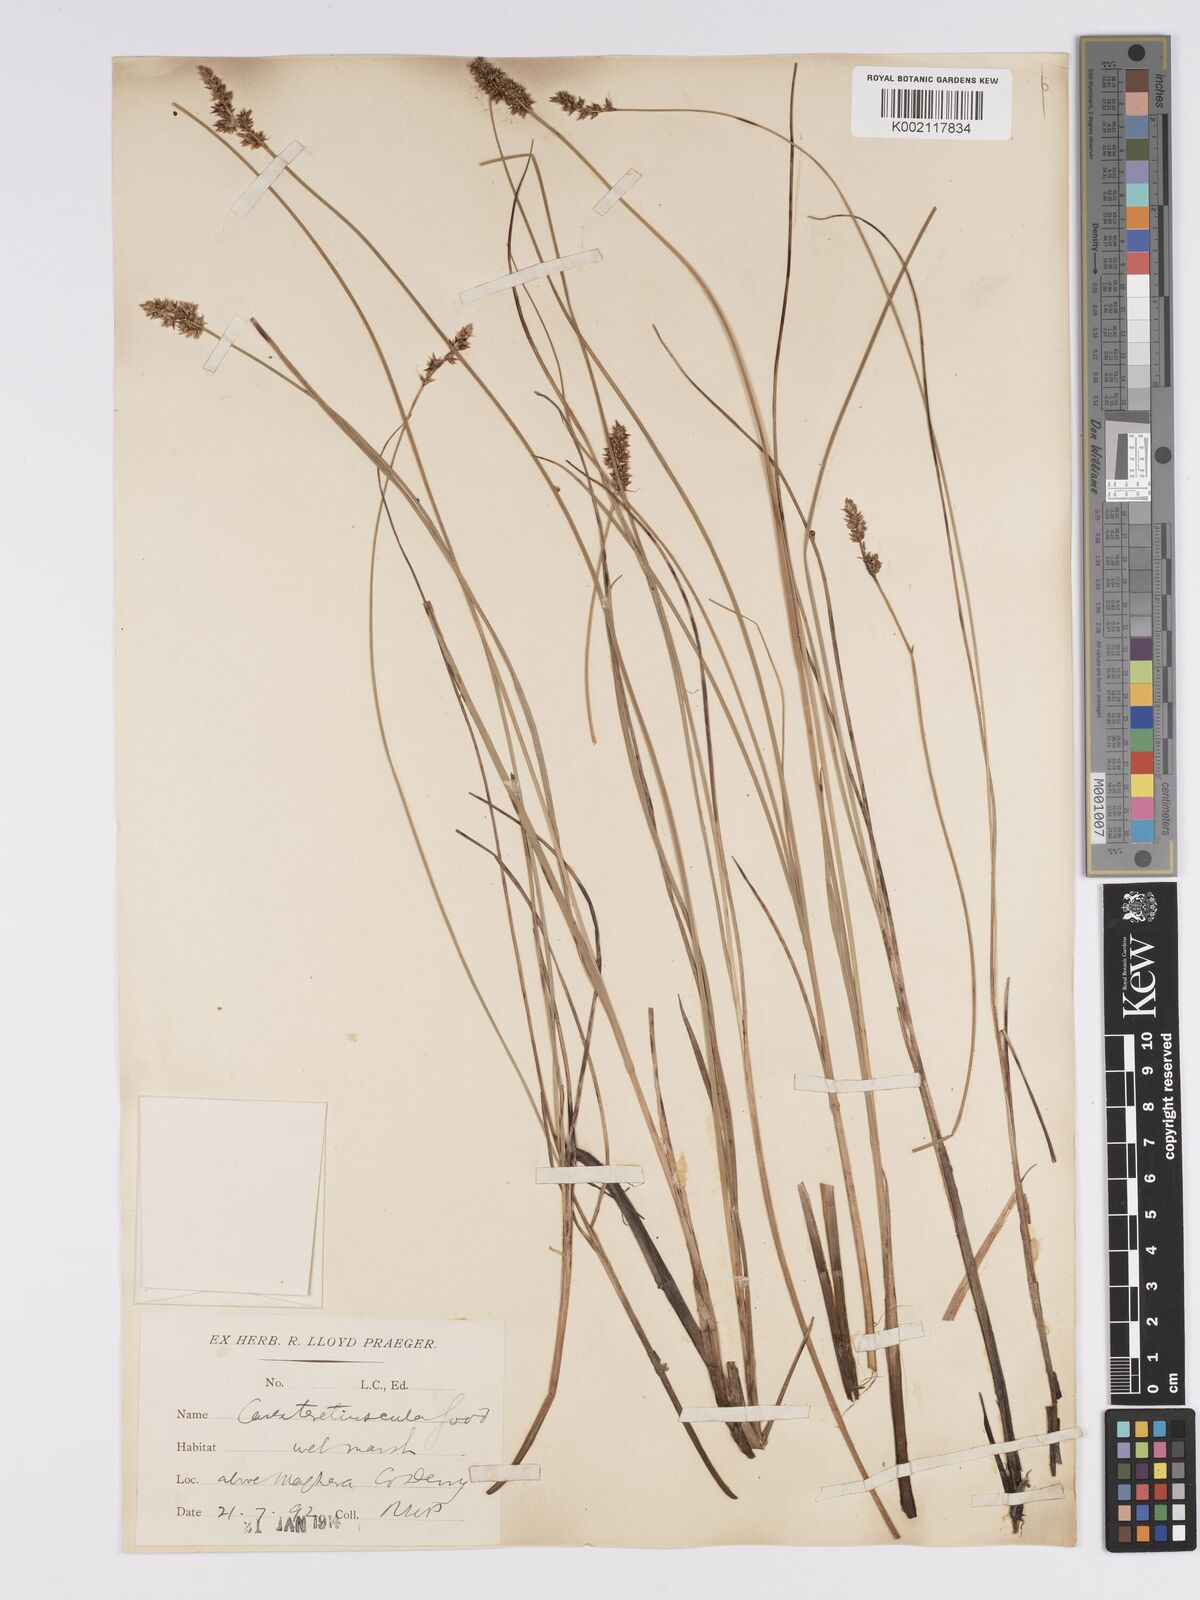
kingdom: Plantae
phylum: Tracheophyta
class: Liliopsida
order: Poales
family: Cyperaceae
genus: Carex
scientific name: Carex diandra
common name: Lesser tussock-sedge
